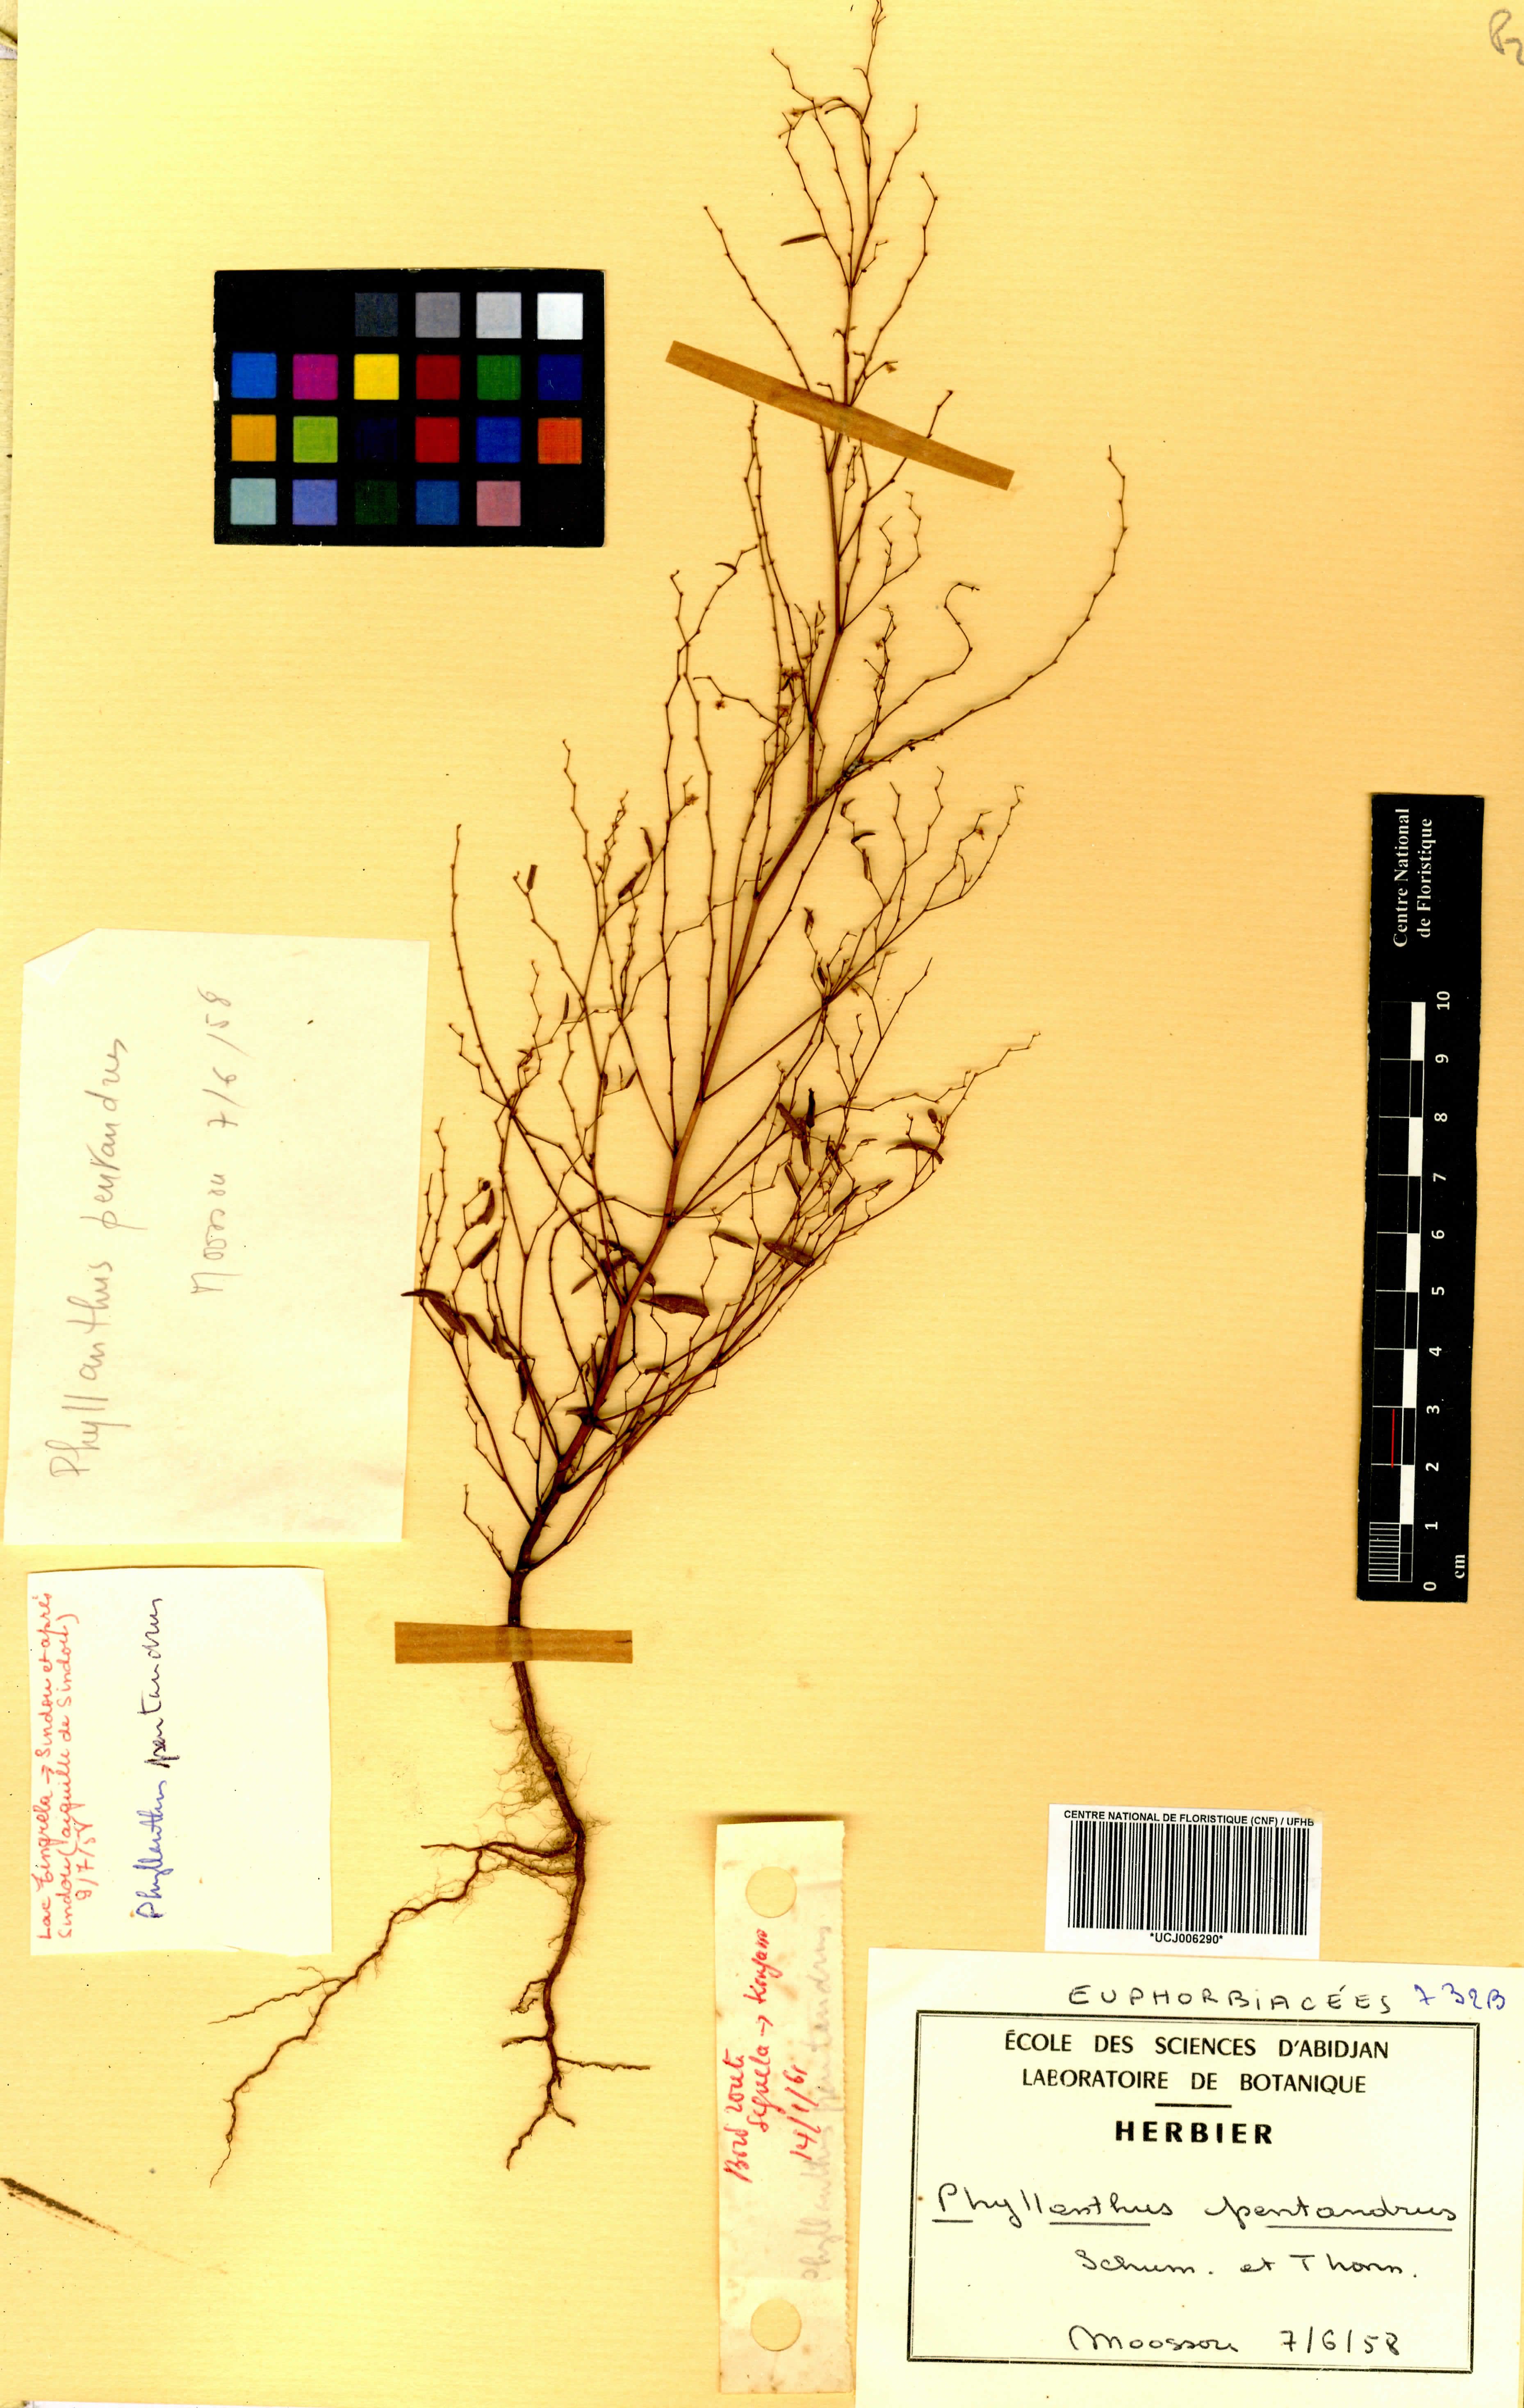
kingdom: Plantae
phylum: Tracheophyta
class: Magnoliopsida
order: Malpighiales
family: Phyllanthaceae
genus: Phyllanthus
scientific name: Phyllanthus pentandrus
